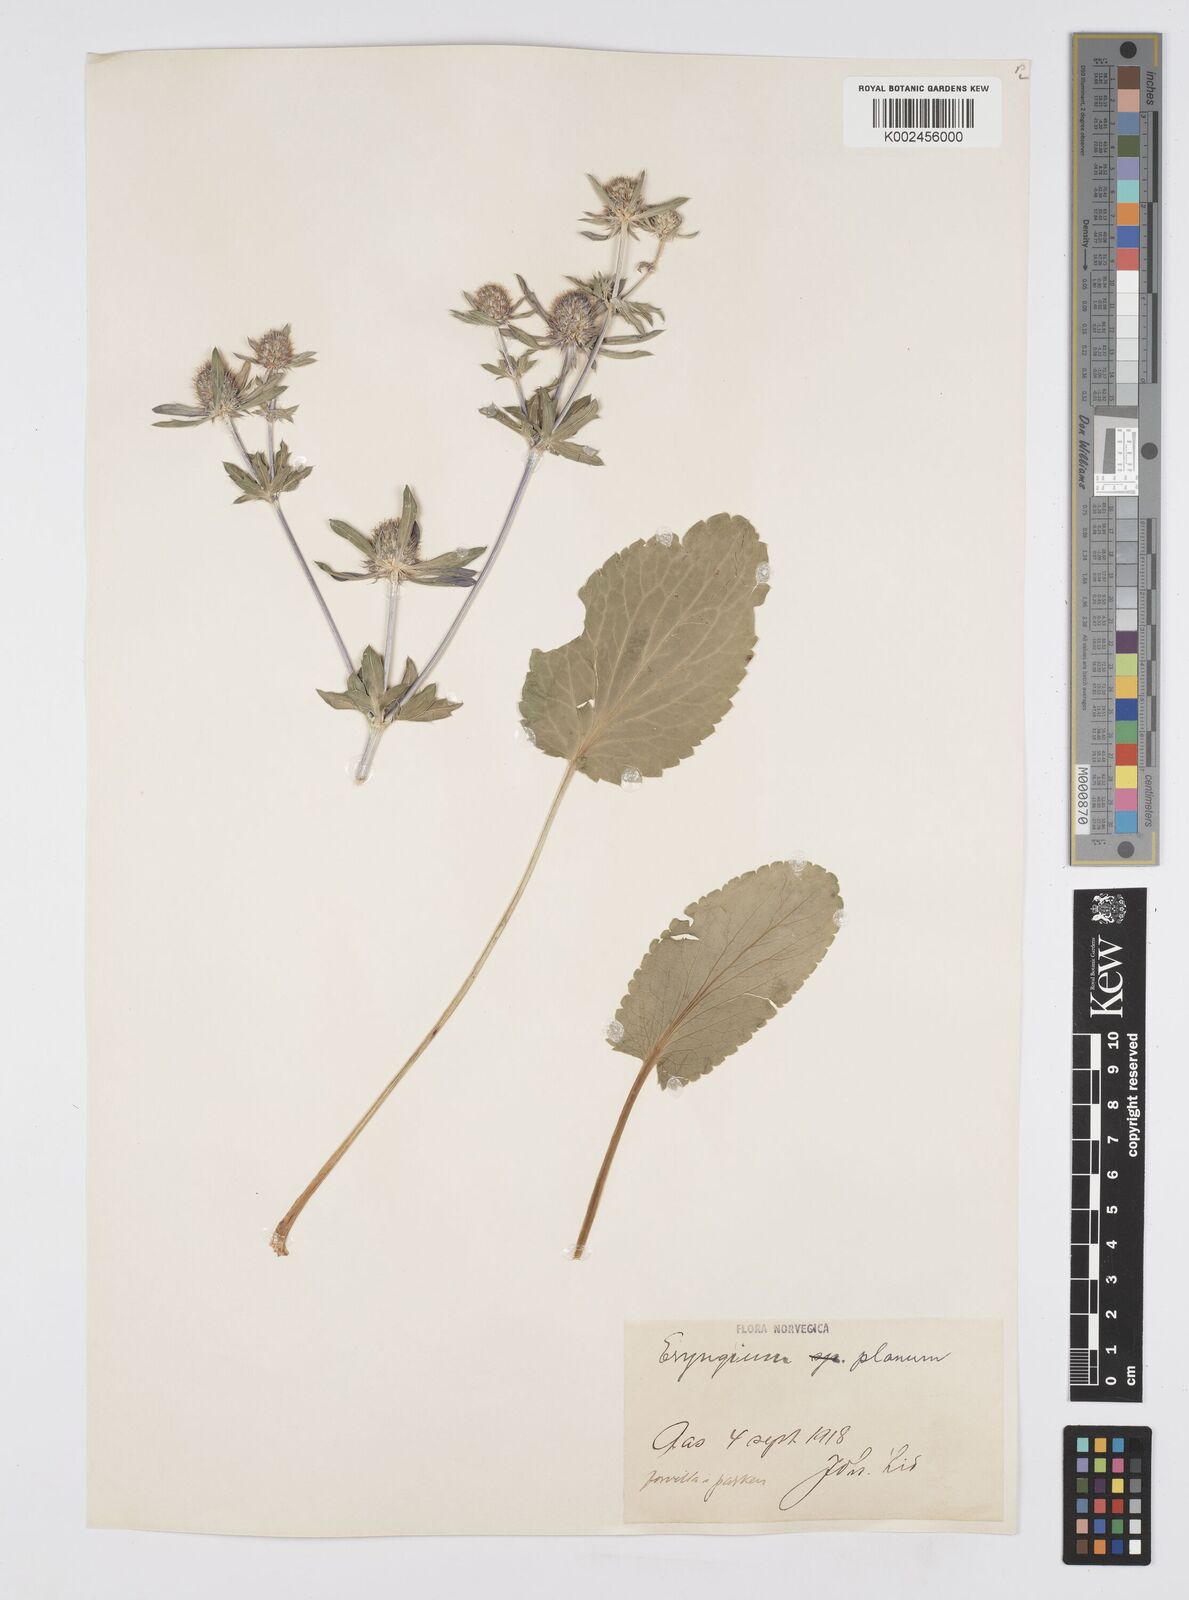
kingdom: Plantae
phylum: Tracheophyta
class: Magnoliopsida
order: Apiales
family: Apiaceae
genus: Eryngium
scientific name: Eryngium planum
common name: Blue eryngo
